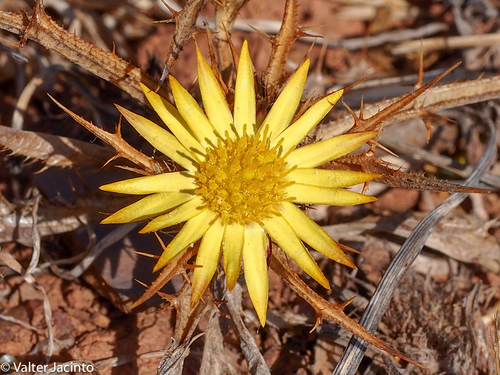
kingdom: Plantae
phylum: Tracheophyta
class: Magnoliopsida
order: Asterales
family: Asteraceae
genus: Carlina
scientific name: Carlina racemosa
